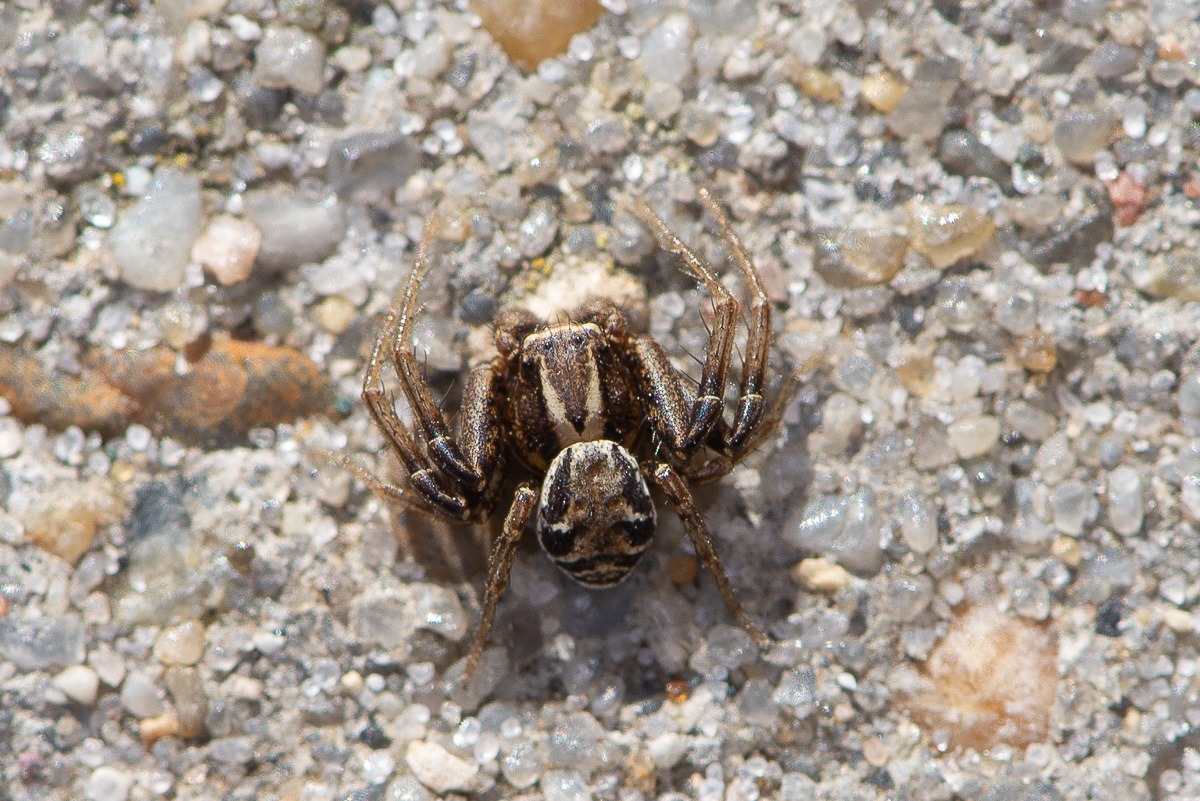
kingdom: Animalia
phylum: Arthropoda
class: Arachnida
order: Araneae
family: Thomisidae
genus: Xysticus
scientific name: Xysticus
